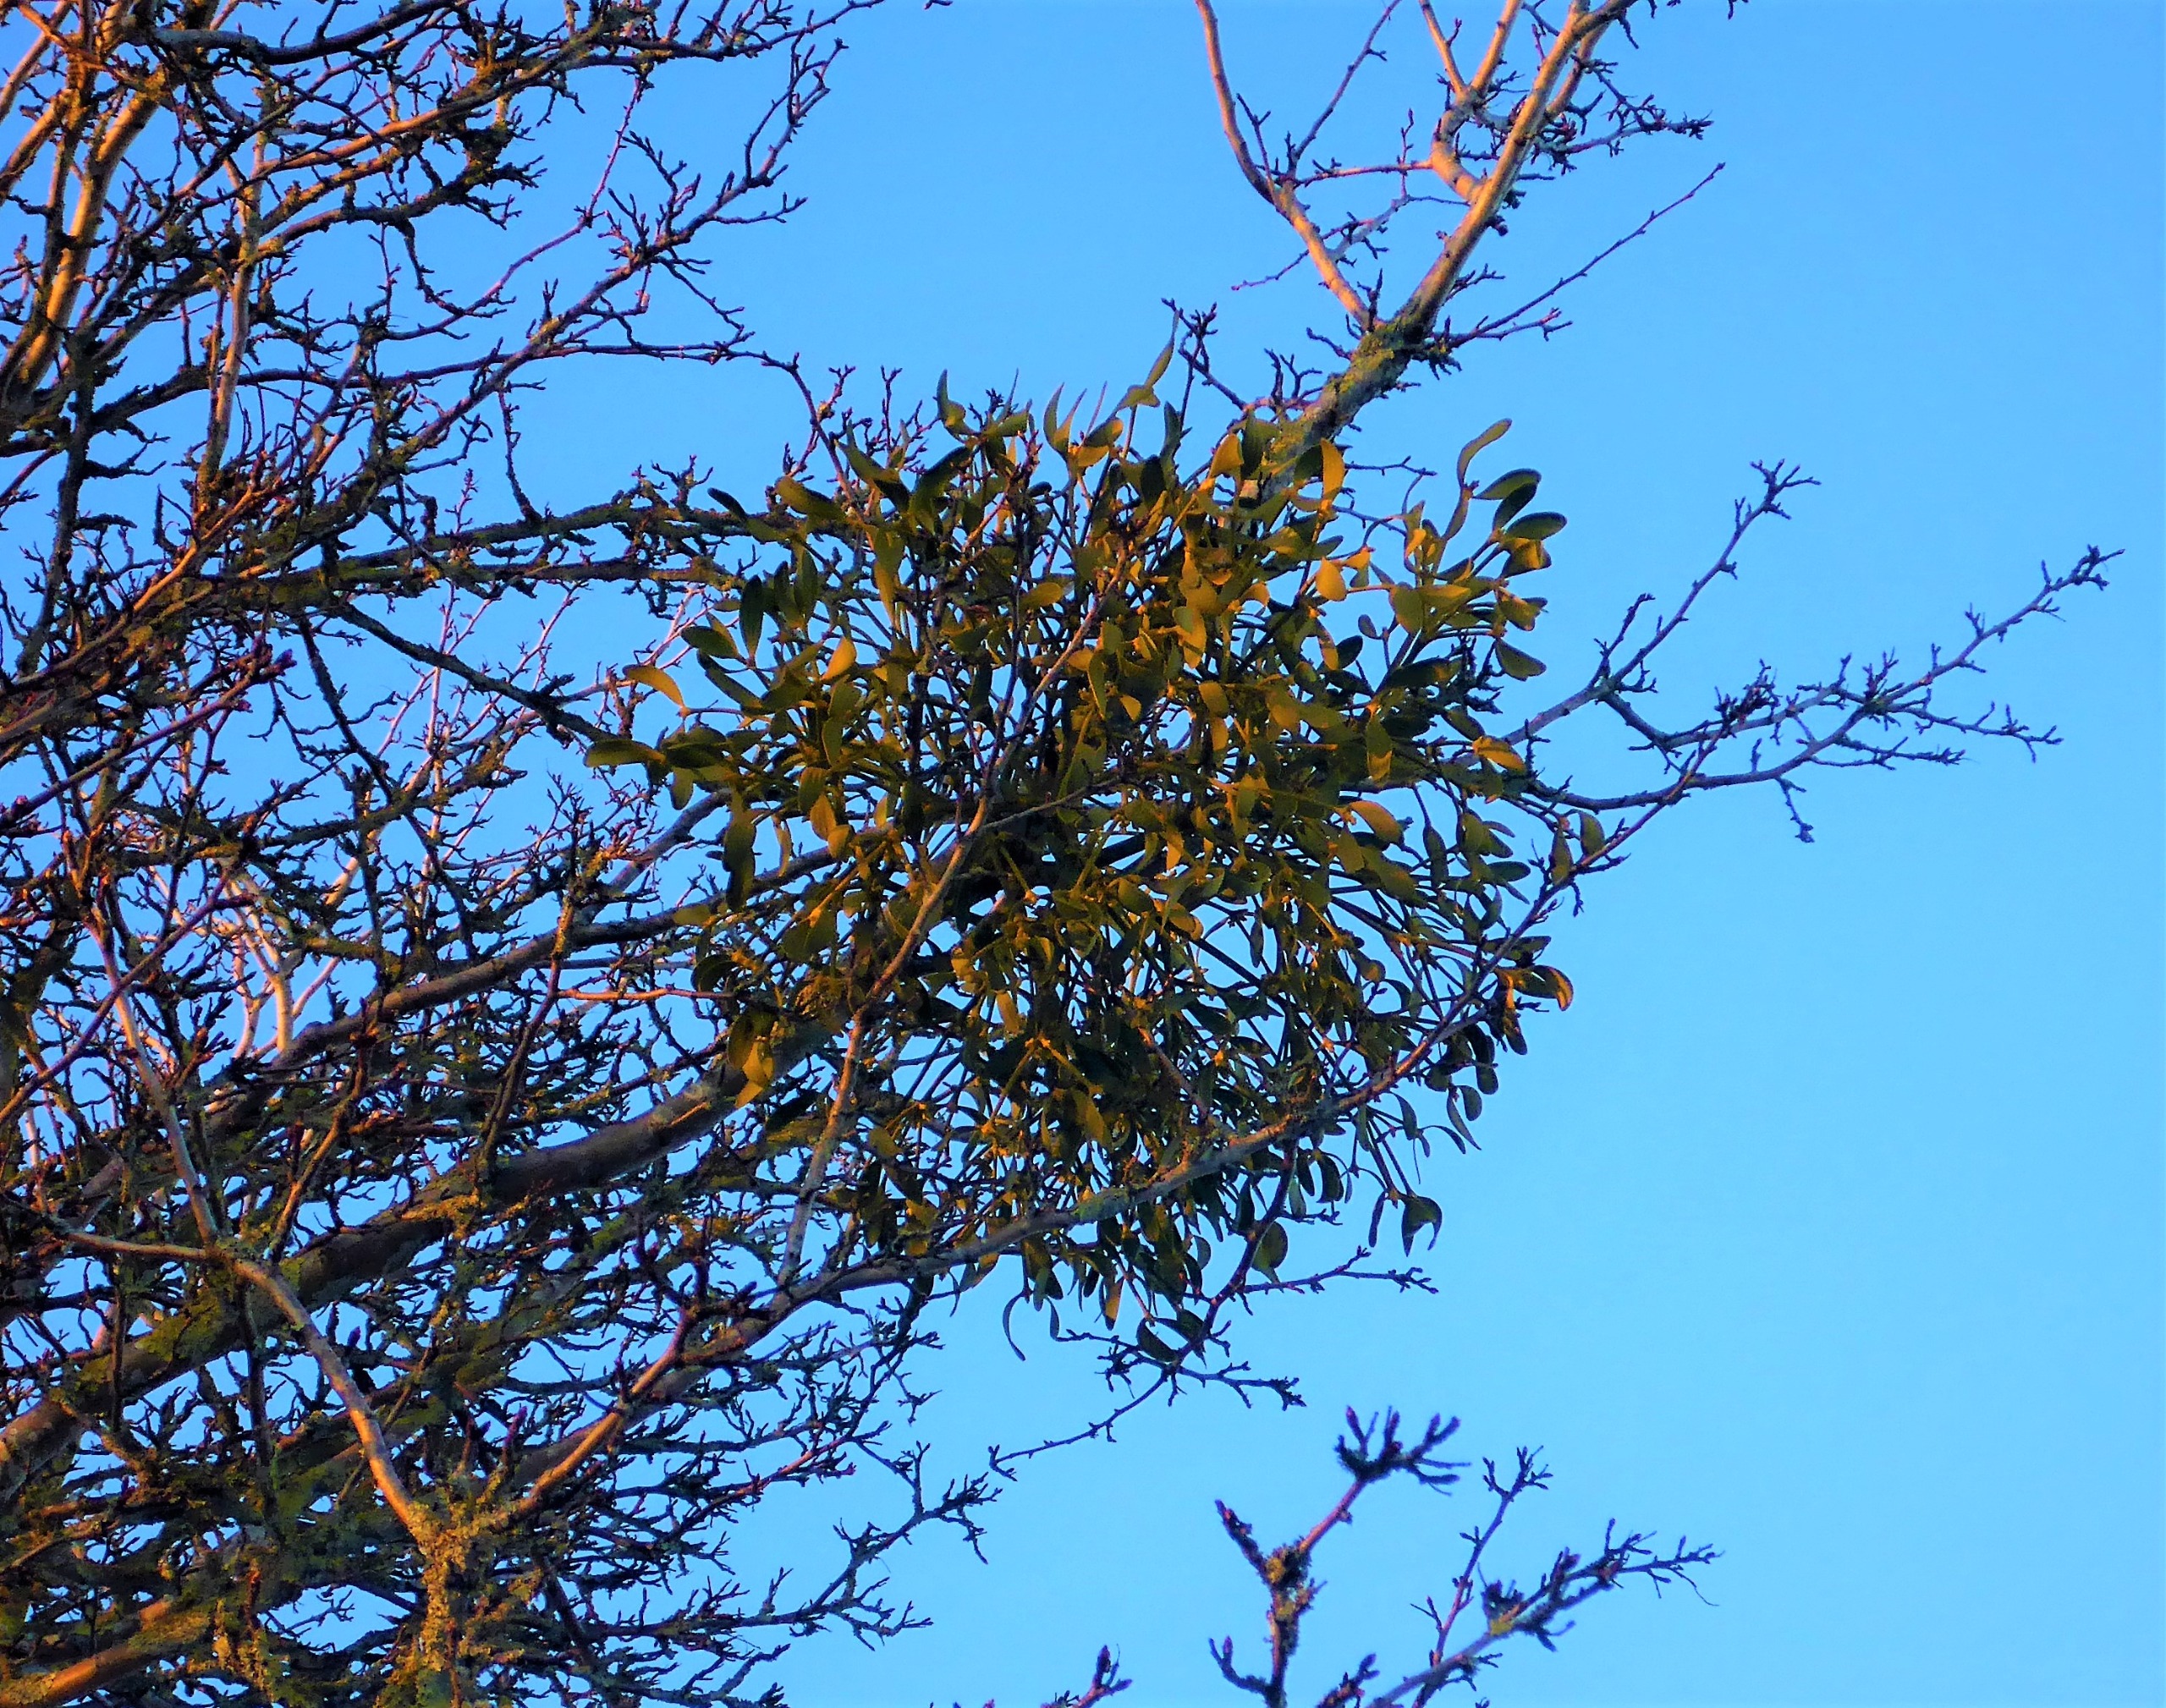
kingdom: Plantae
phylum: Tracheophyta
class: Magnoliopsida
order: Santalales
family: Viscaceae
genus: Viscum
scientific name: Viscum album
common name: Mistelten
